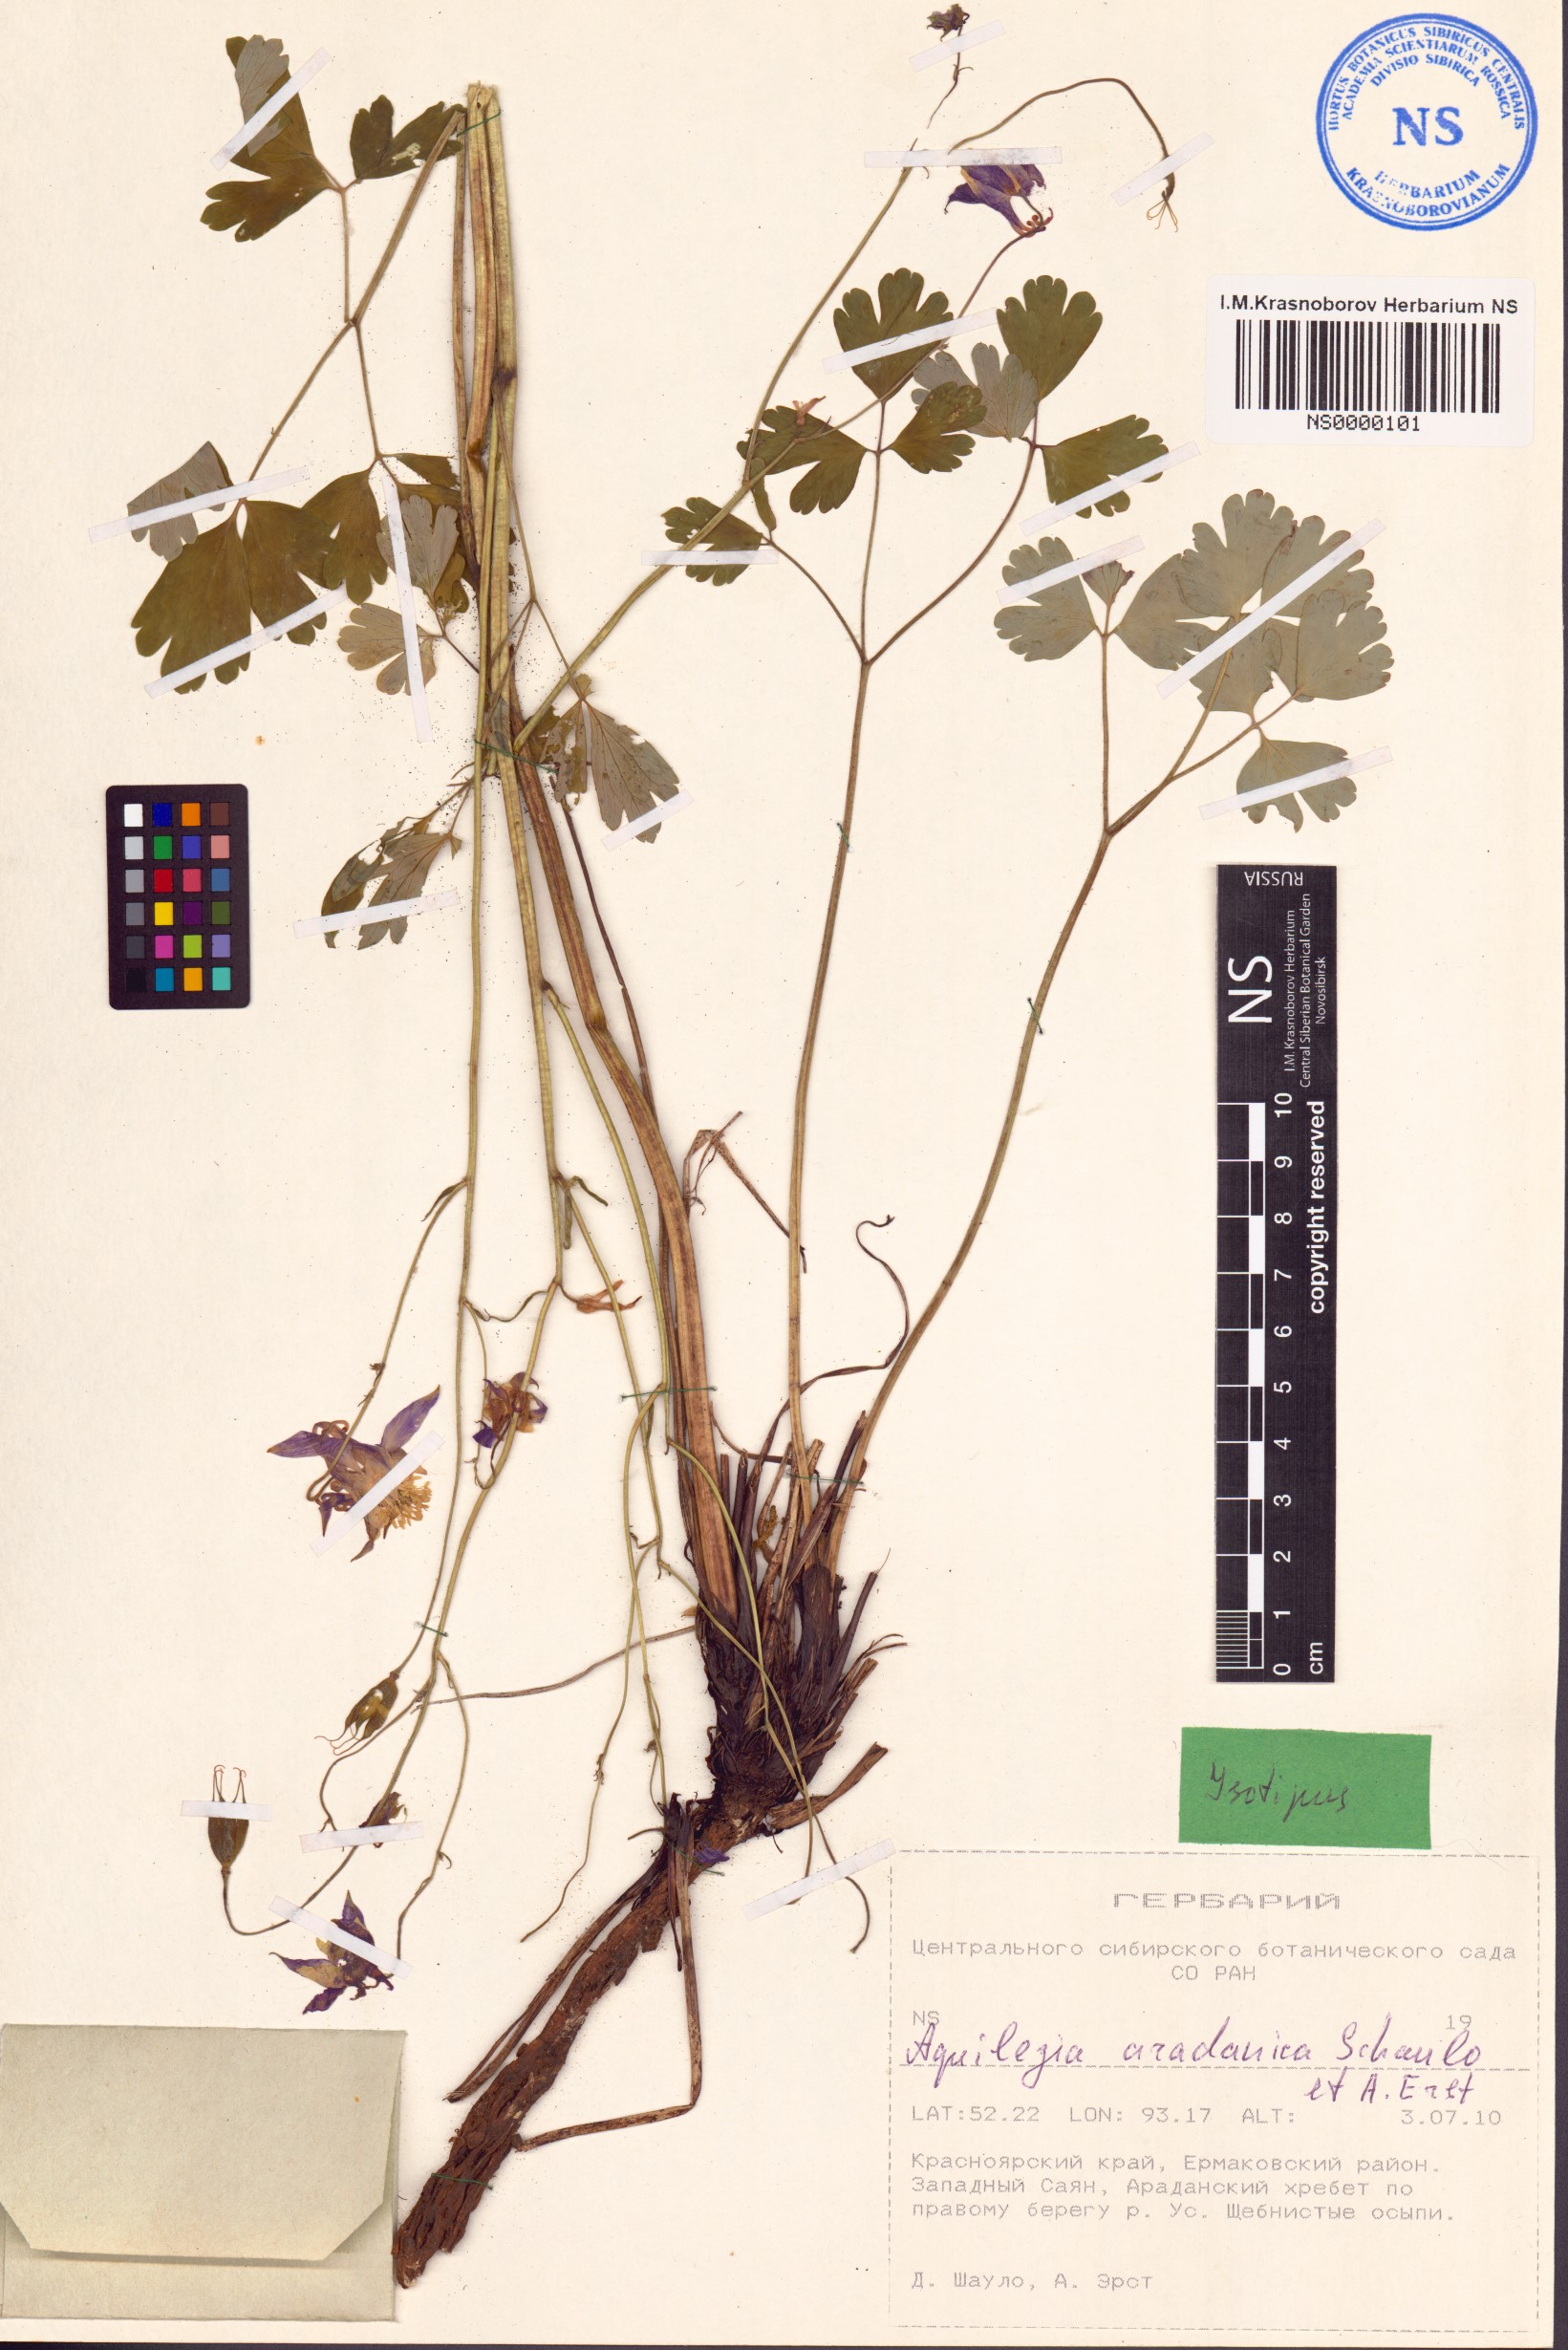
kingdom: Plantae
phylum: Tracheophyta
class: Magnoliopsida
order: Ranunculales
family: Ranunculaceae
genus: Aquilegia
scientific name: Aquilegia aradanica
